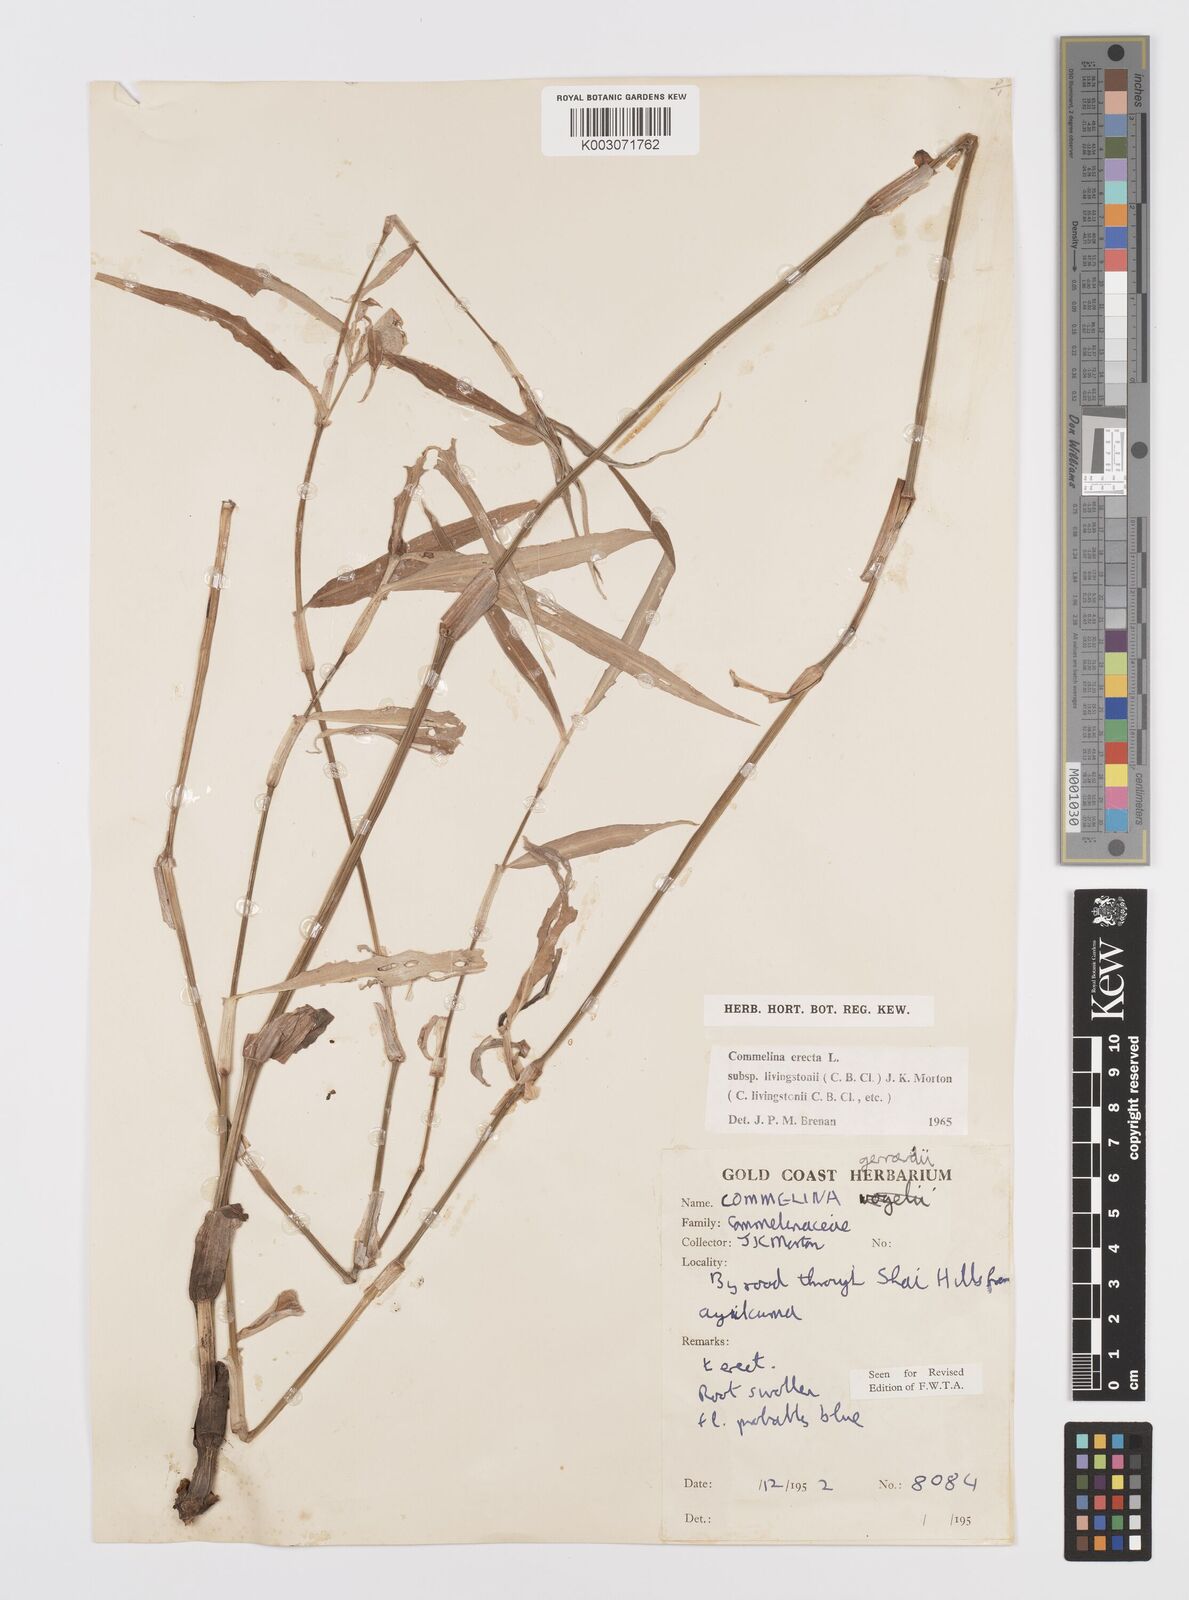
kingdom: Plantae
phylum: Tracheophyta
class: Liliopsida
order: Commelinales
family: Commelinaceae
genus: Commelina
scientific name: Commelina erecta
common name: Blousel blommetjie
